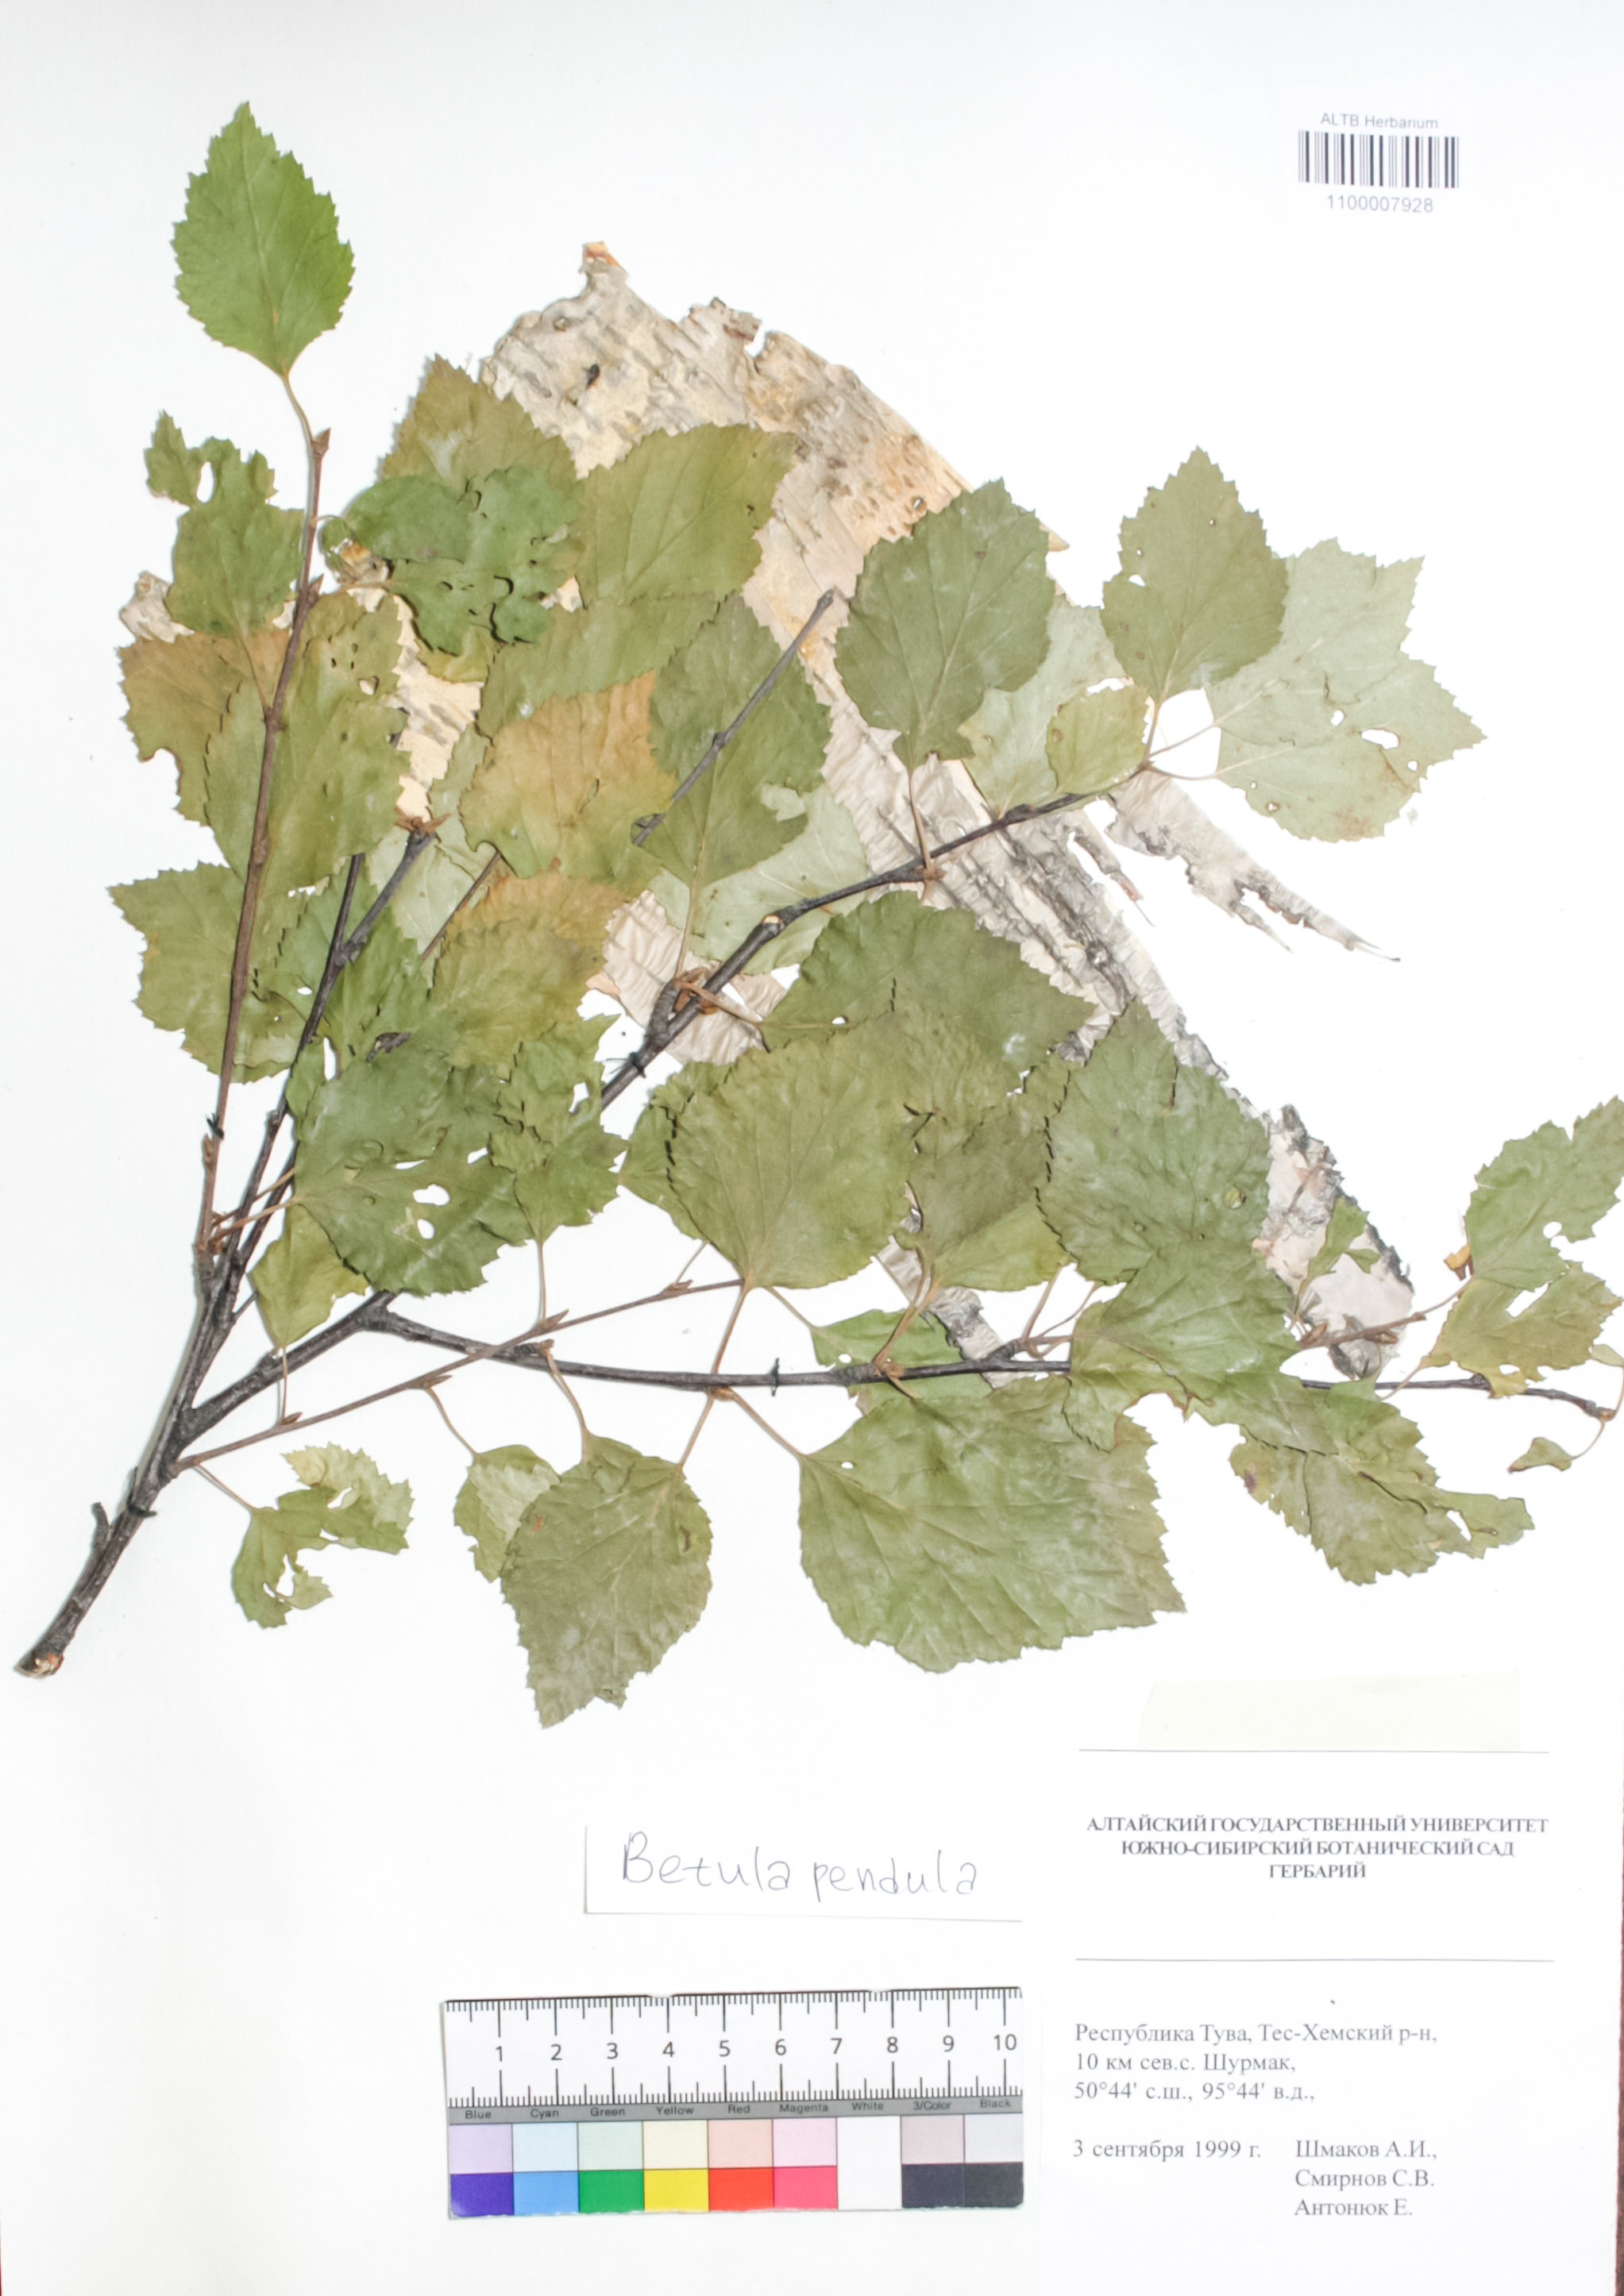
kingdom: Plantae
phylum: Tracheophyta
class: Magnoliopsida
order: Fagales
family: Betulaceae
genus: Betula
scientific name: Betula pendula
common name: Silver birch
